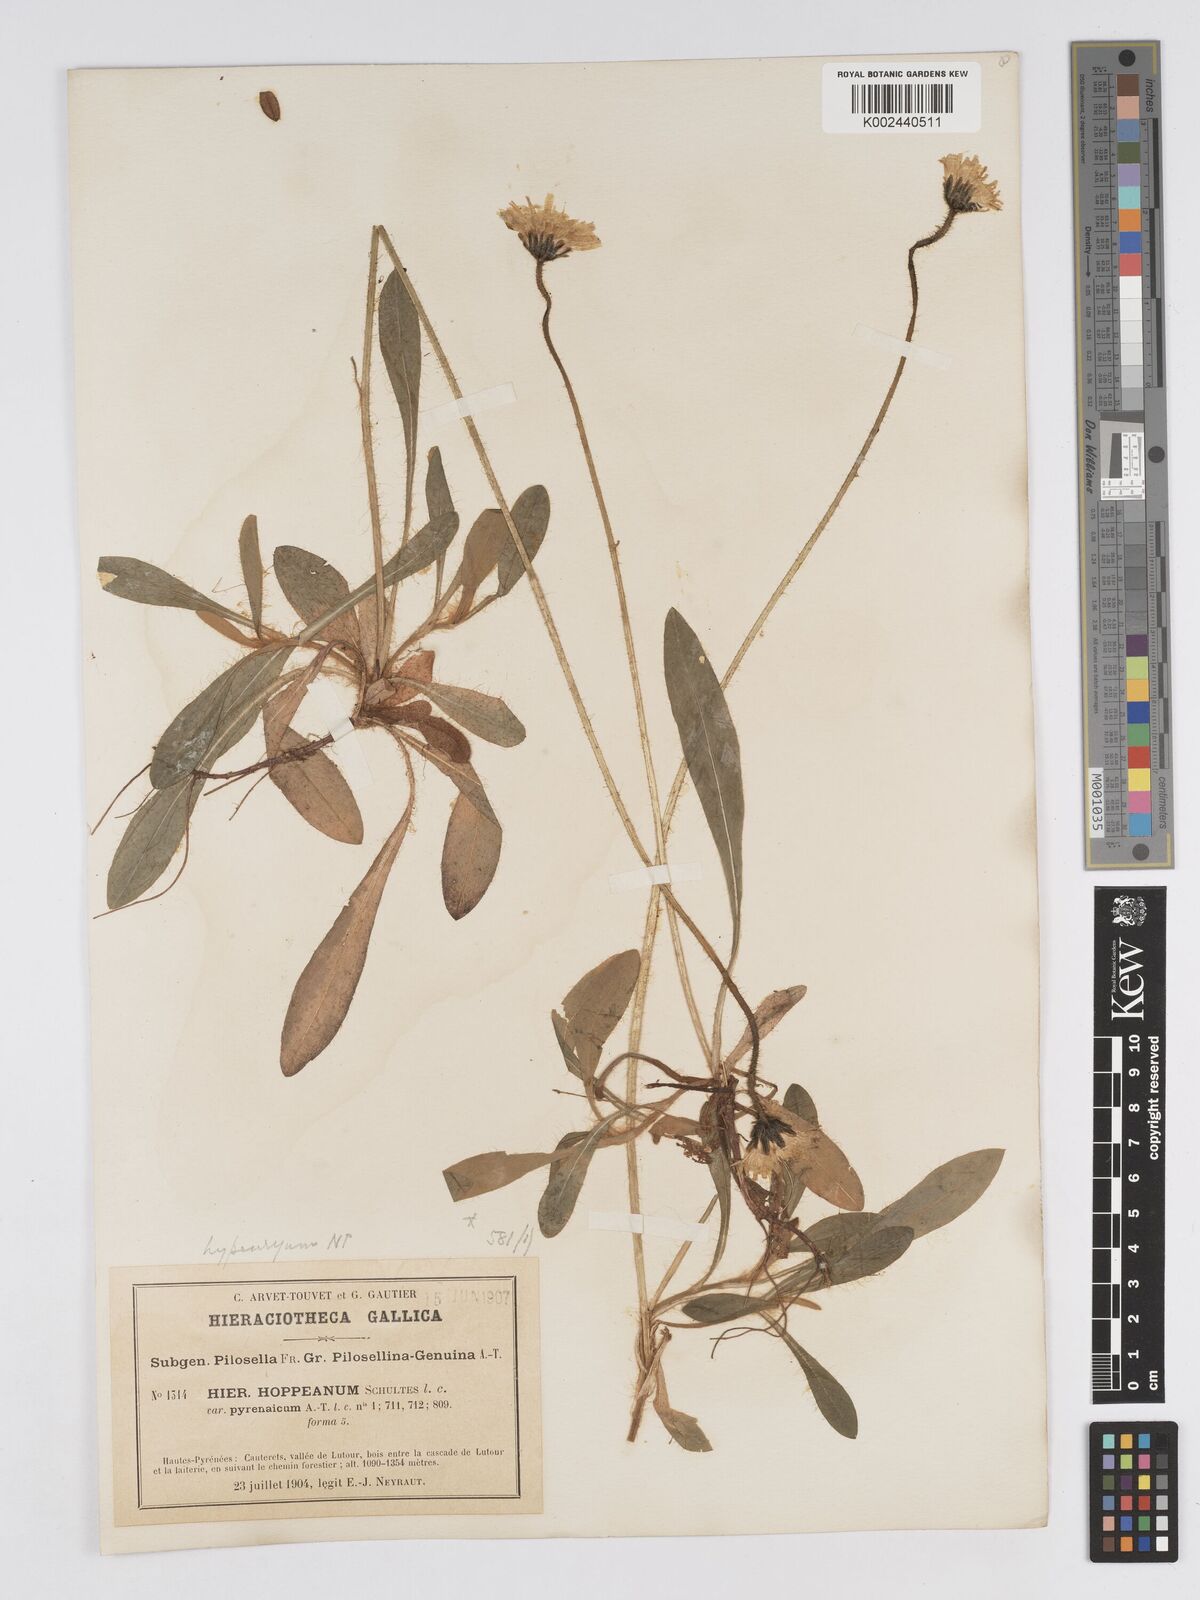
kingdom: Plantae
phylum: Tracheophyta
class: Magnoliopsida
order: Asterales
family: Asteraceae
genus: Pilosella
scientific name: Pilosella hypeurya
